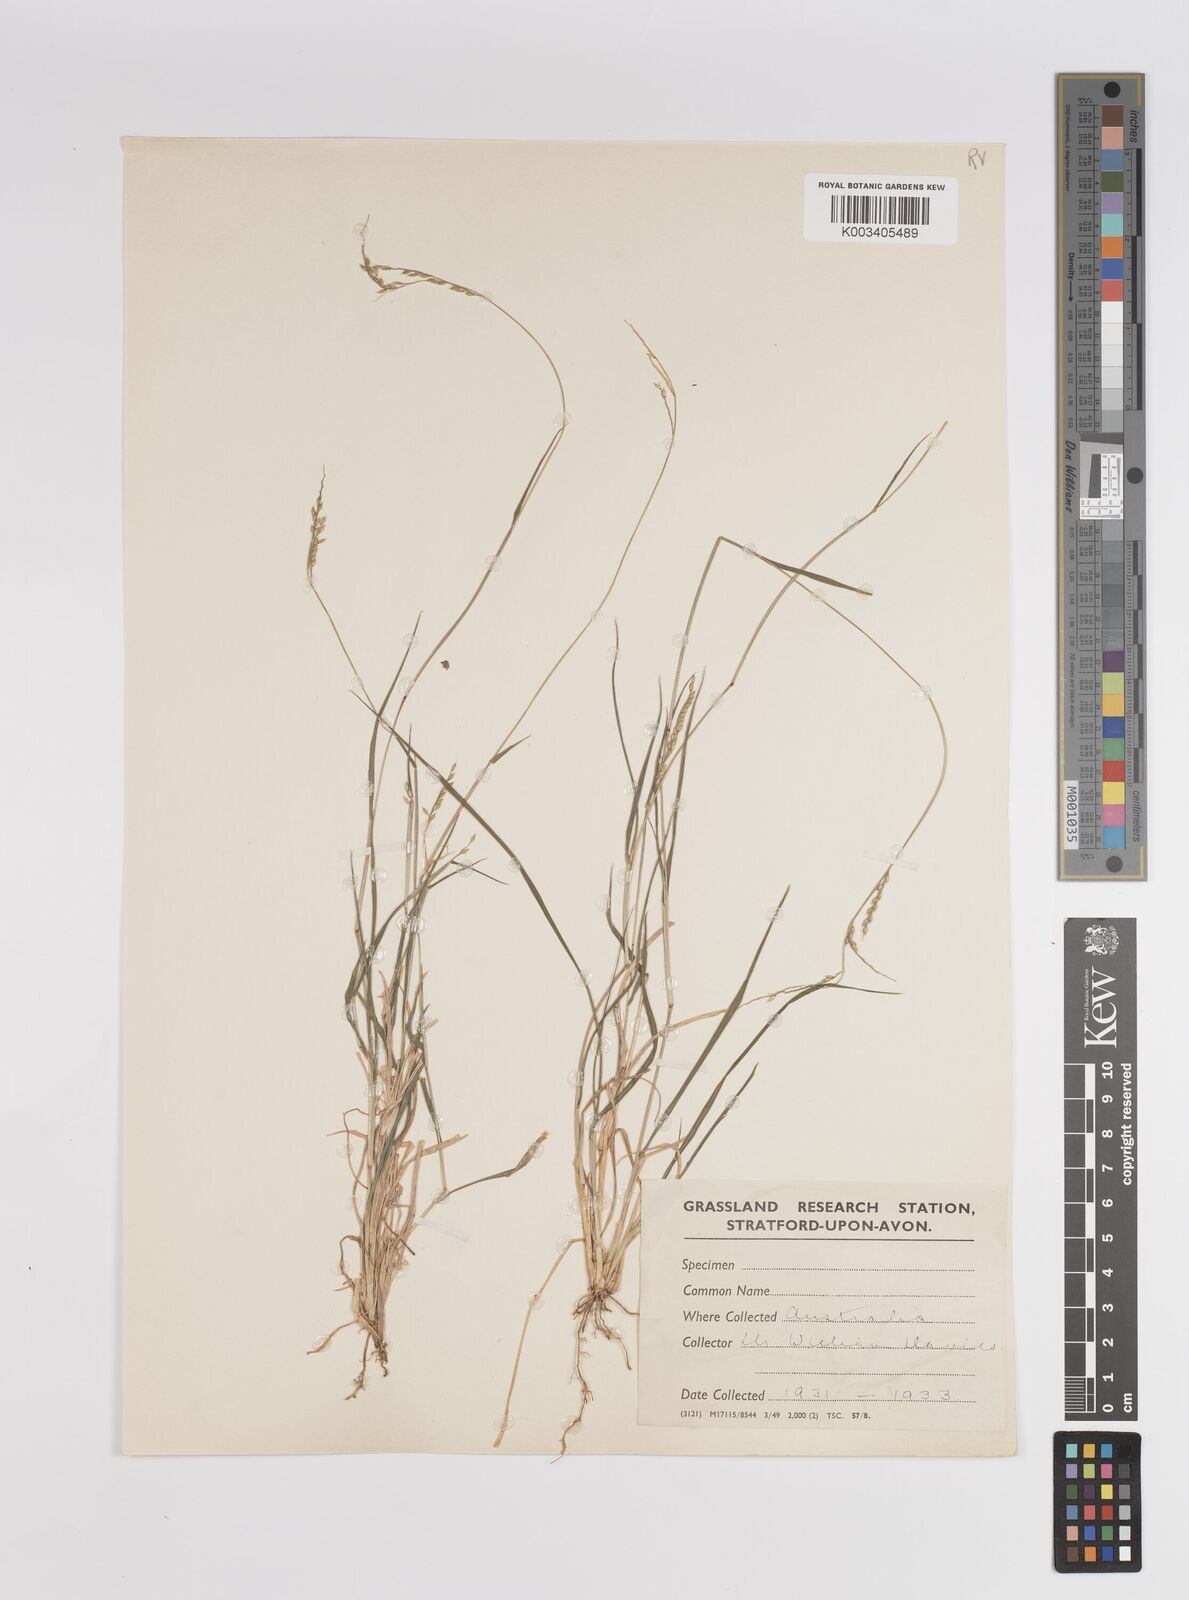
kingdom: Plantae
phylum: Tracheophyta
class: Liliopsida
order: Poales
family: Poaceae
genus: Panicum
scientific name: Panicum
